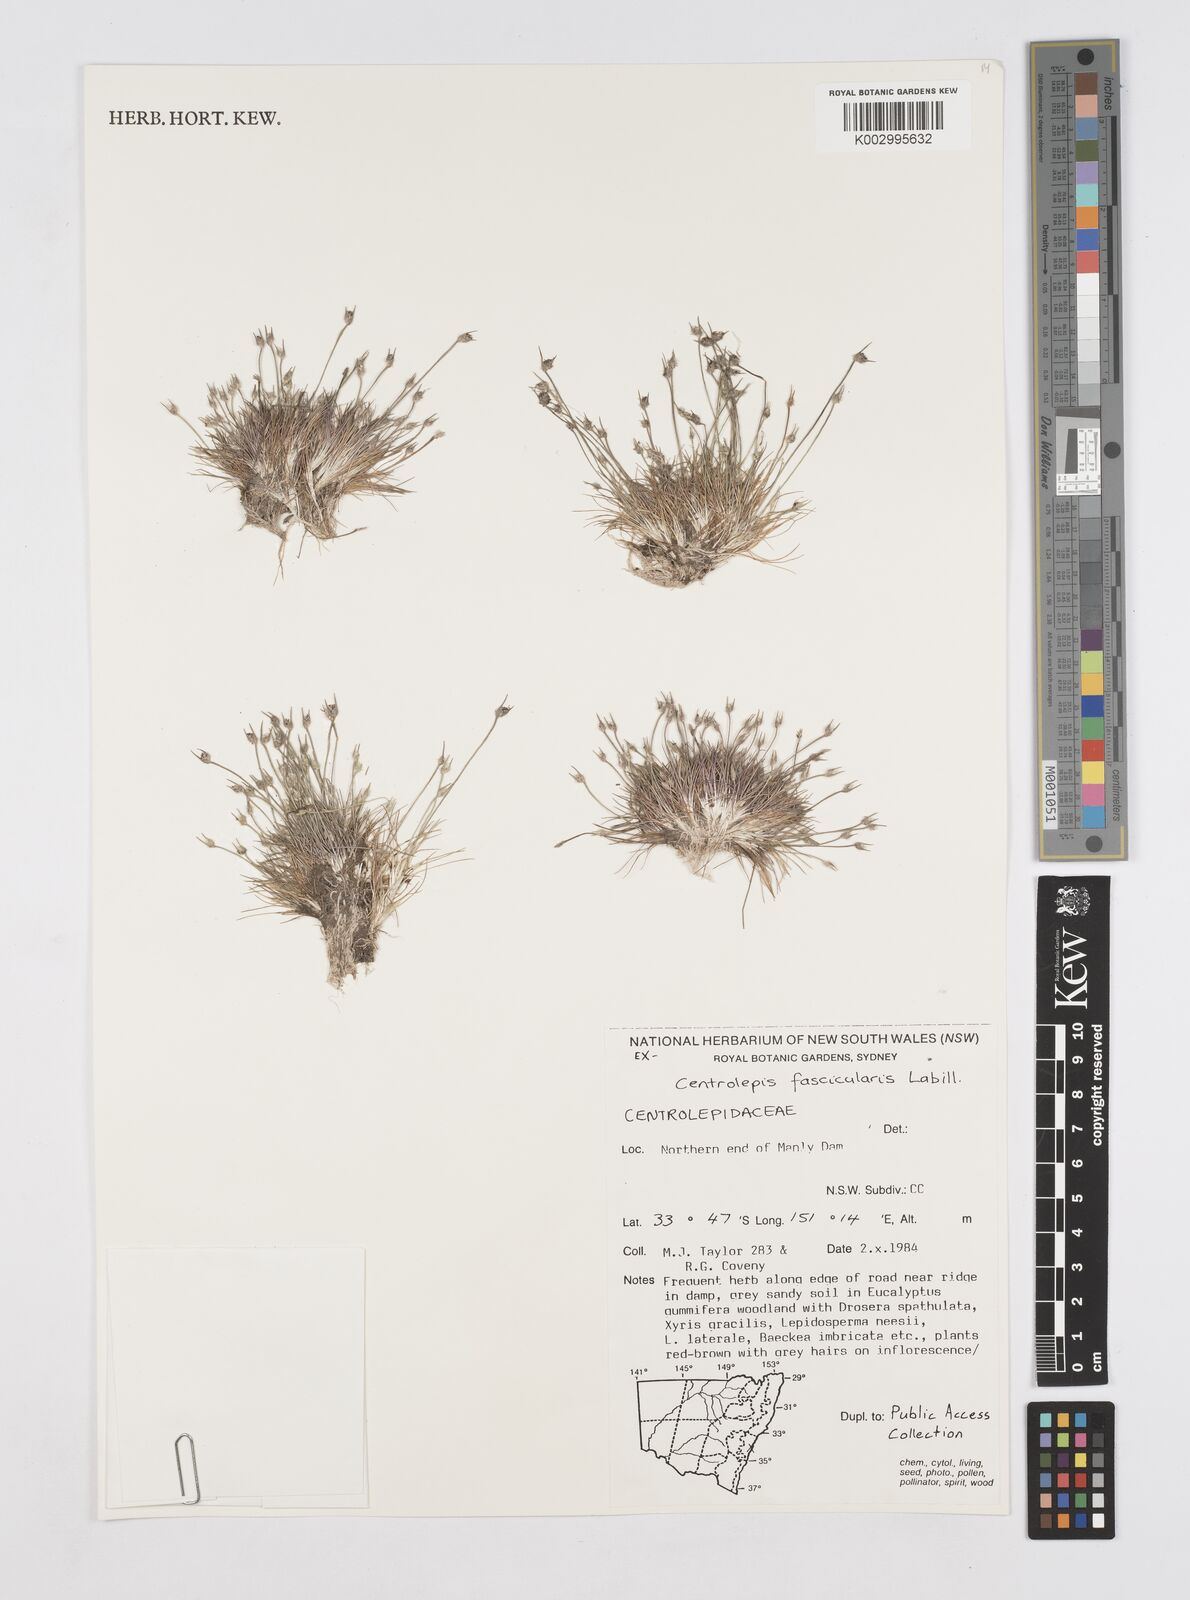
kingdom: Plantae
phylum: Tracheophyta
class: Liliopsida
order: Poales
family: Restionaceae
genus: Centrolepis
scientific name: Centrolepis fascicularis
